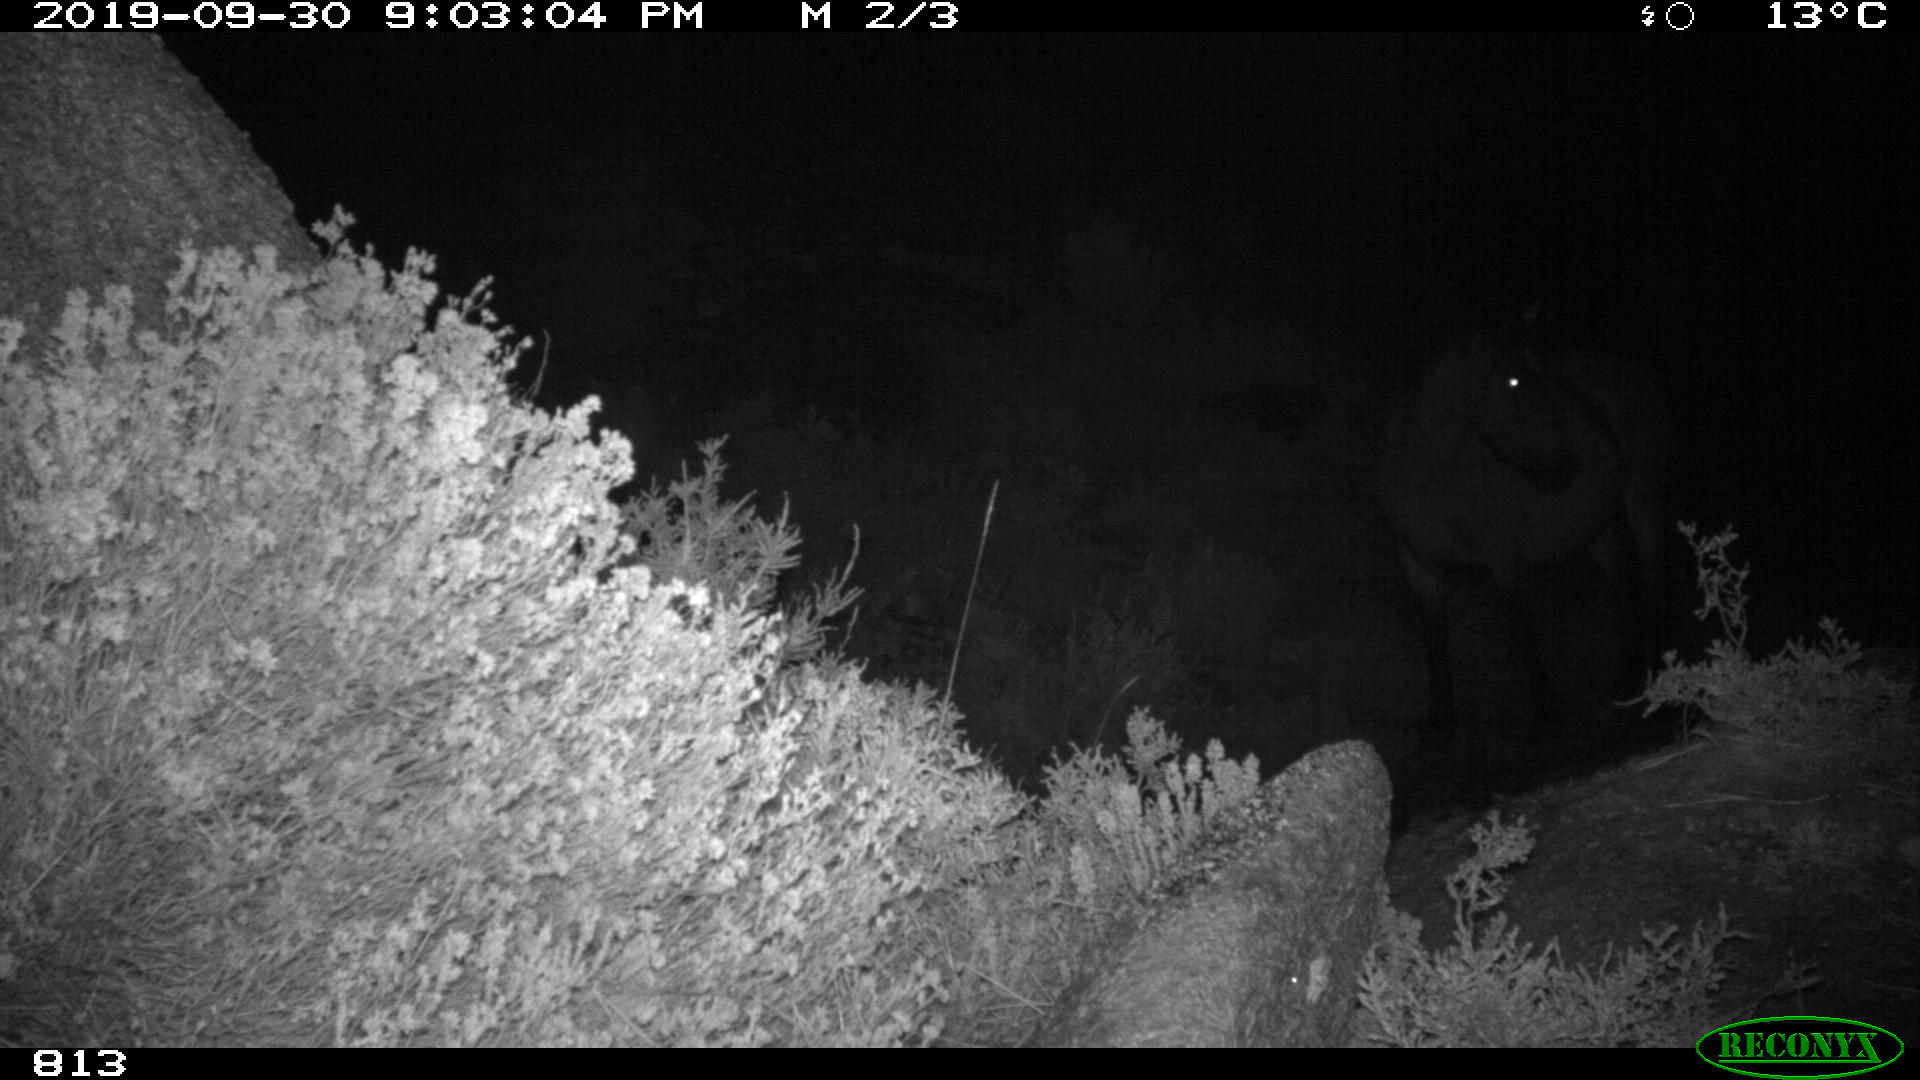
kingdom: Animalia
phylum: Chordata
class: Mammalia
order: Perissodactyla
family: Equidae
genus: Equus
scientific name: Equus caballus
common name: Horse
